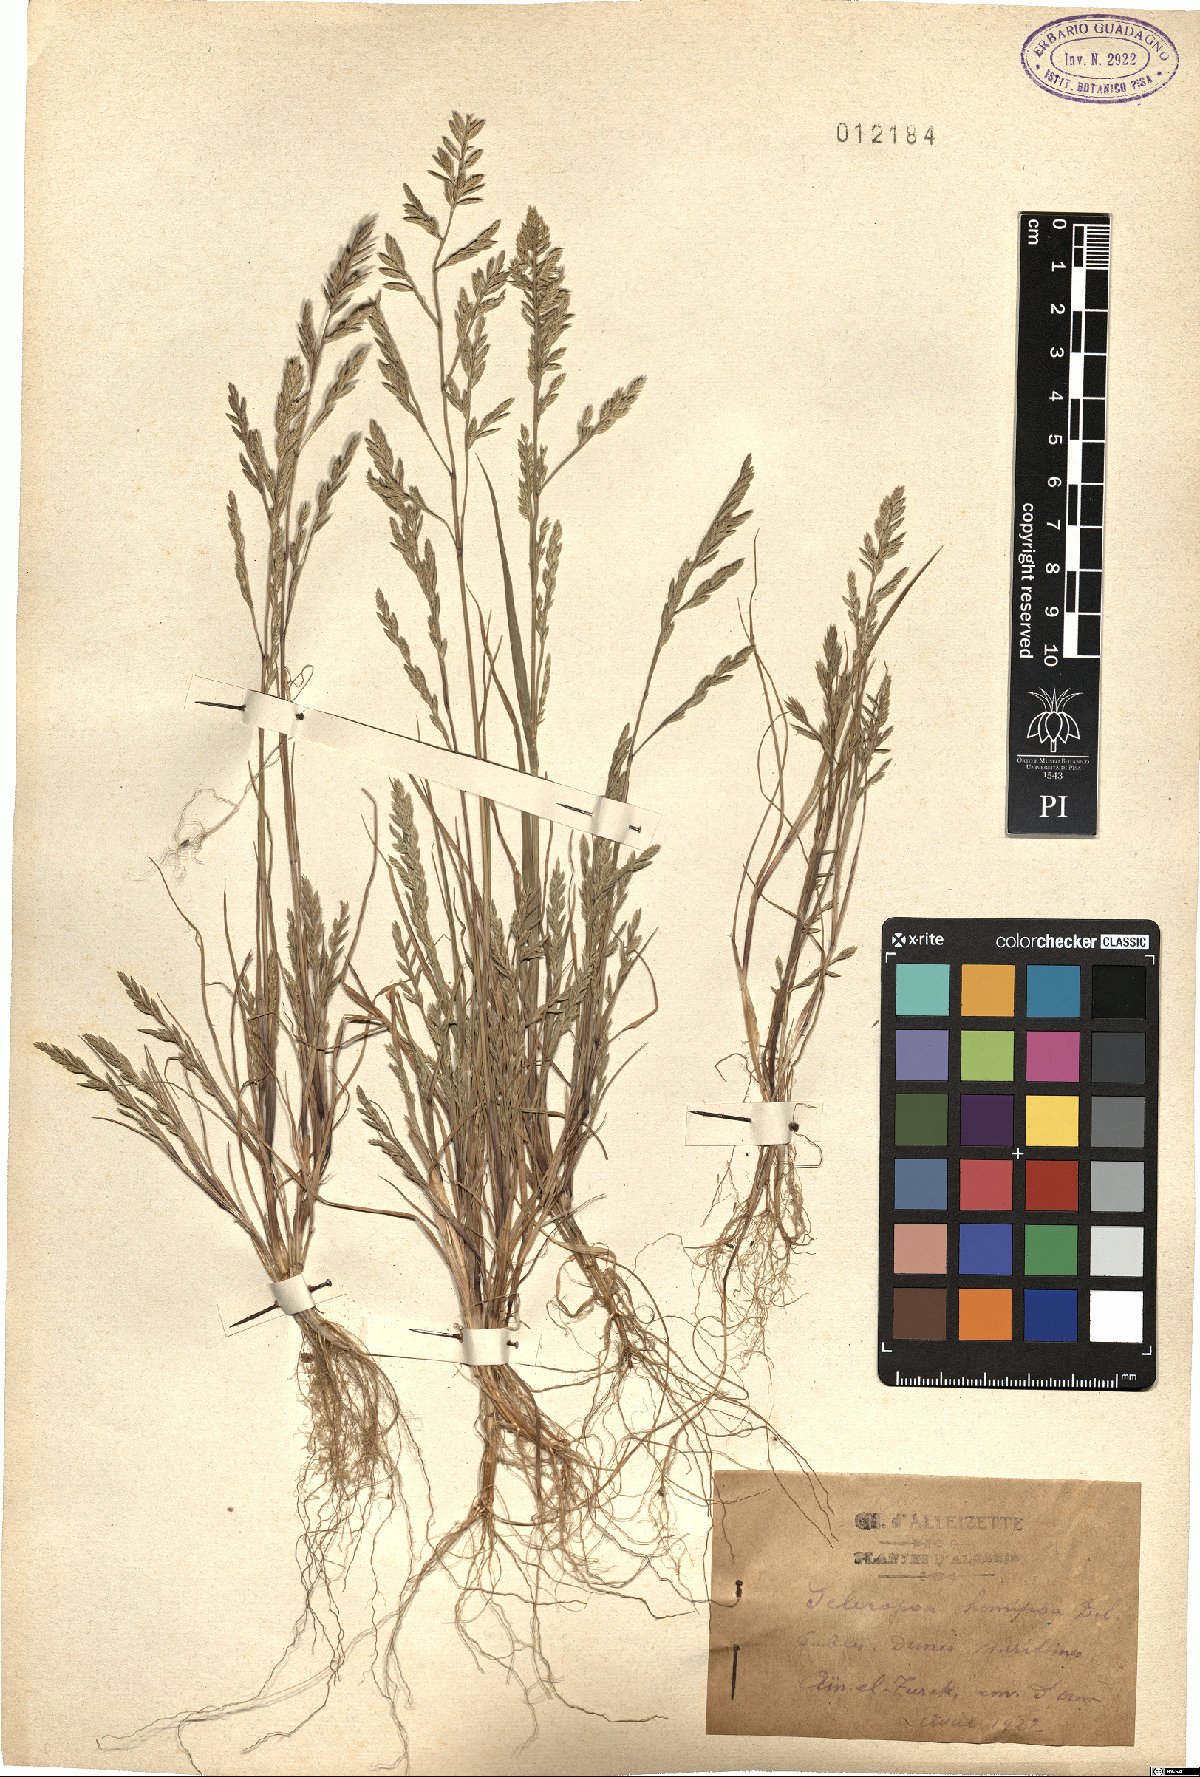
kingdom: Plantae
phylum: Tracheophyta
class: Liliopsida
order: Poales
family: Poaceae
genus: Catapodium
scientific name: Catapodium hemipoa
